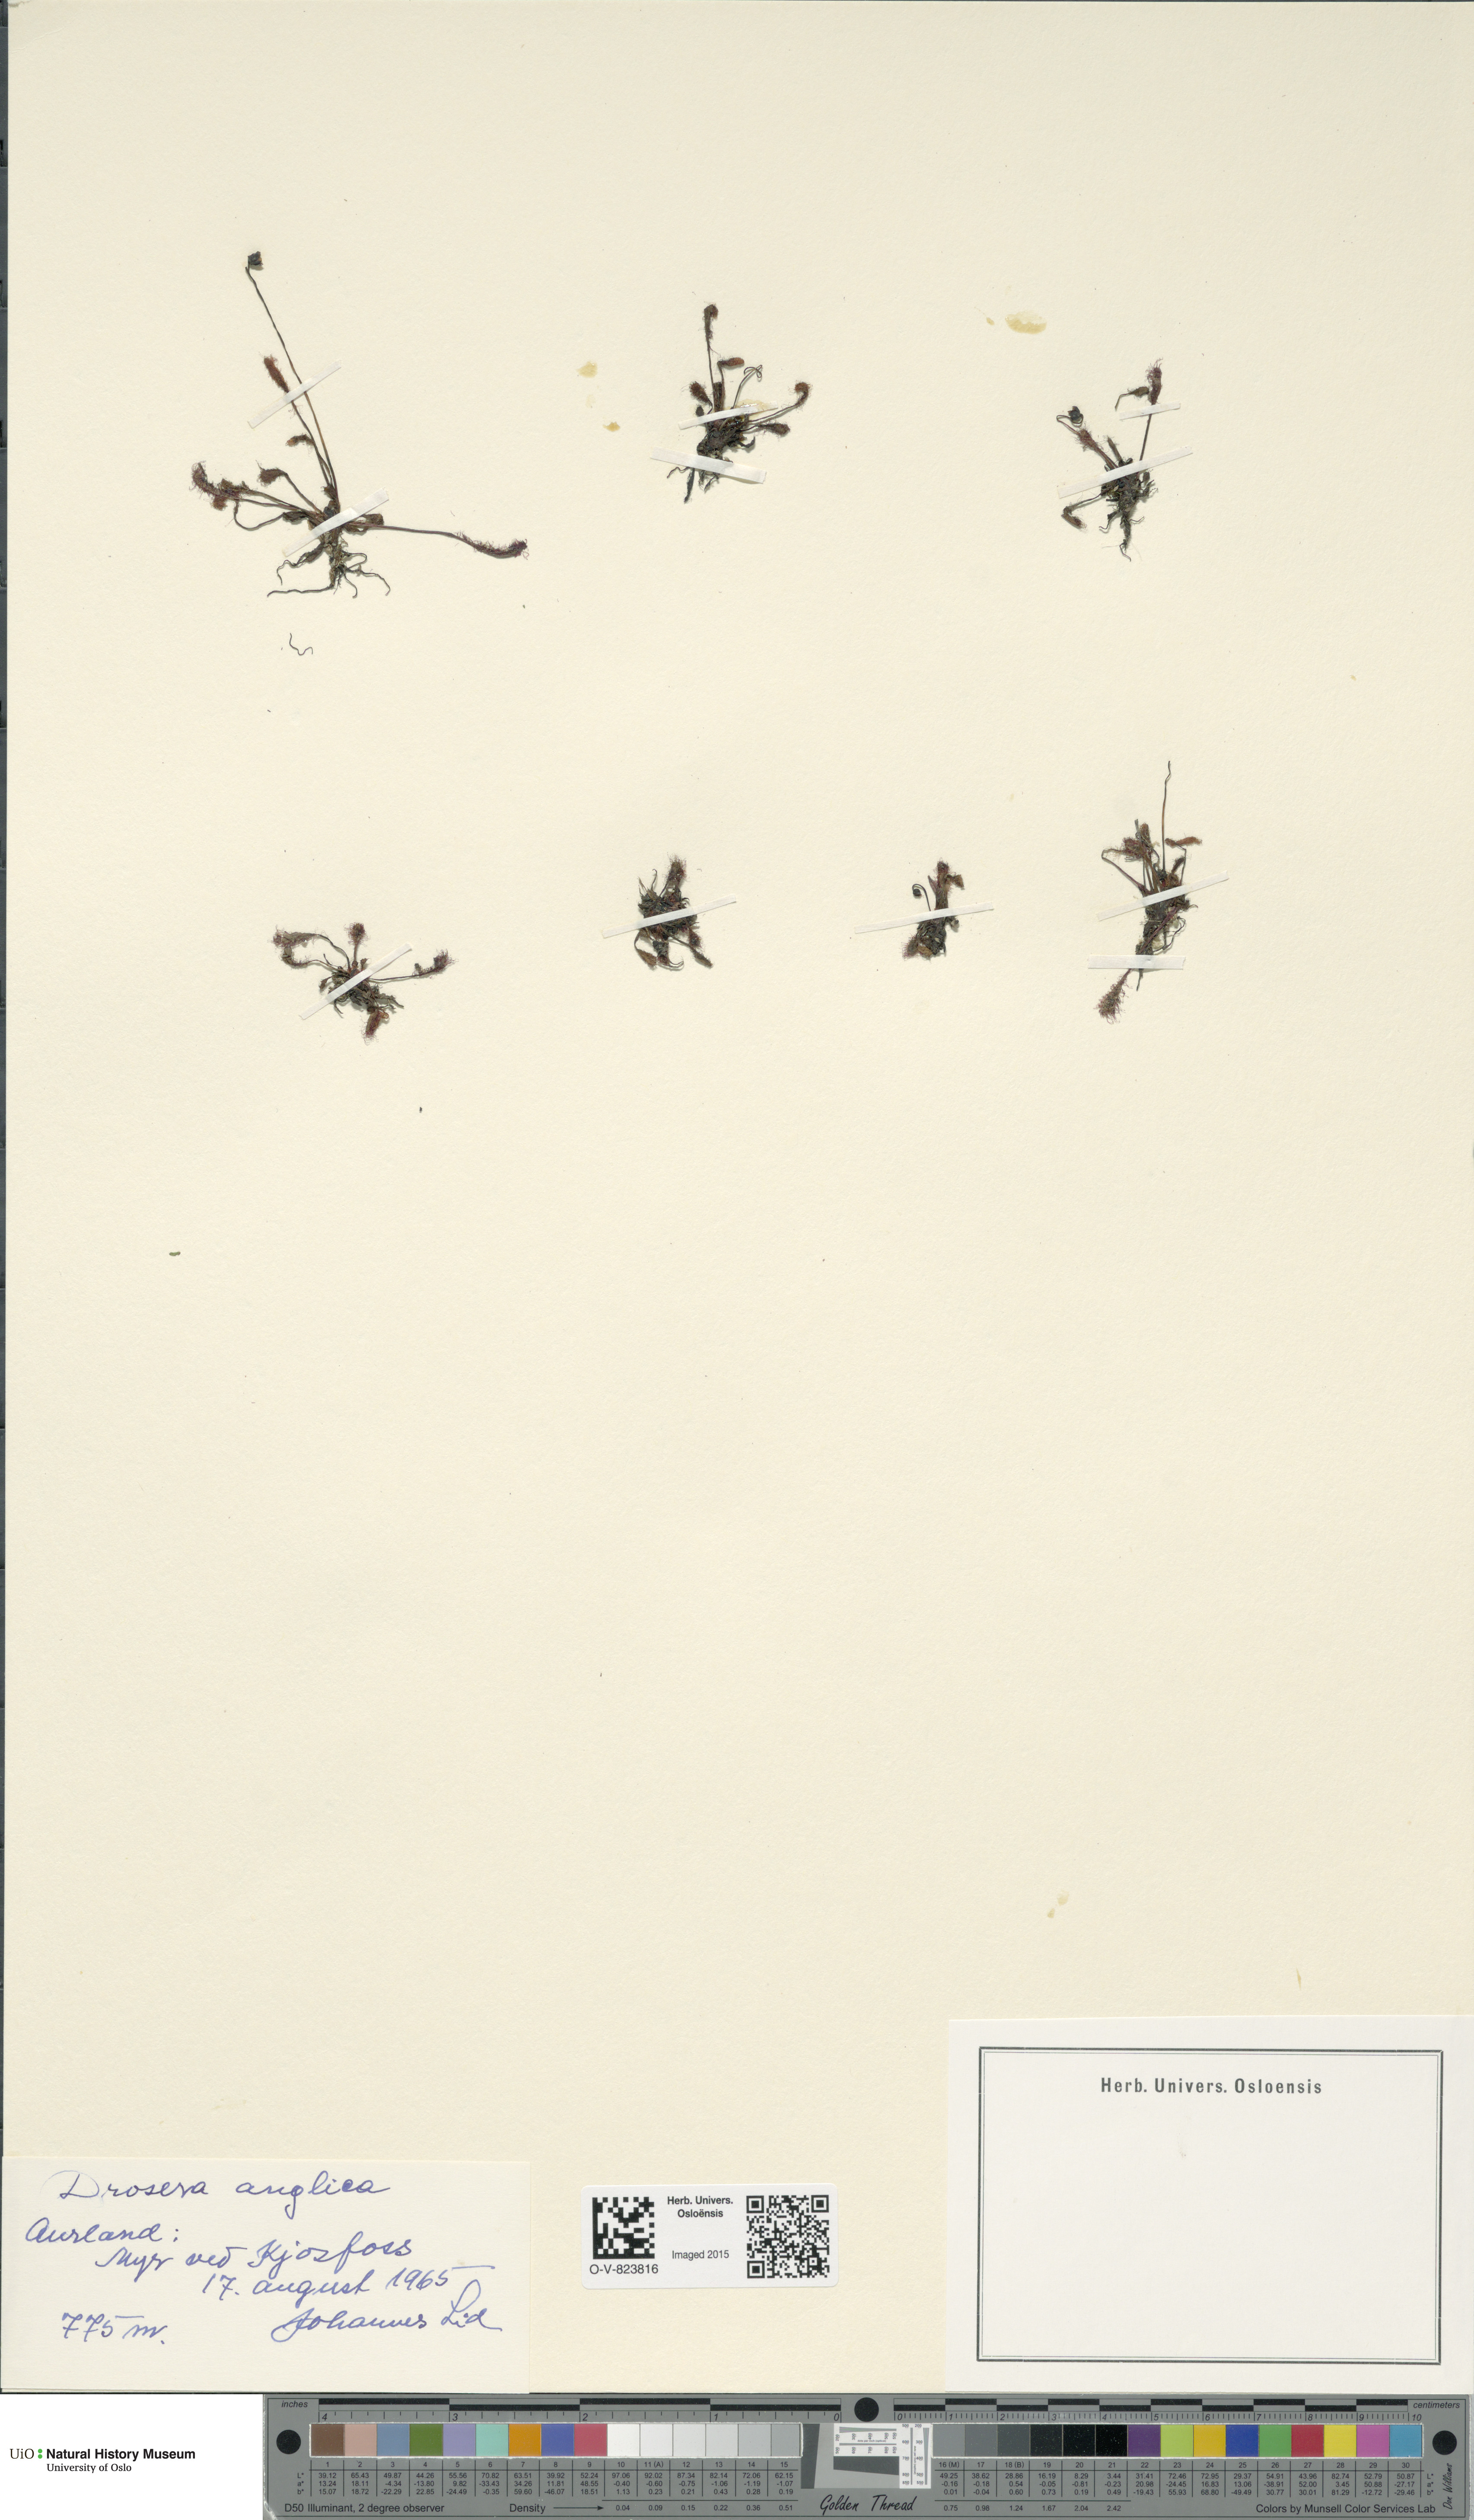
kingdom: Plantae
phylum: Tracheophyta
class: Magnoliopsida
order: Caryophyllales
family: Droseraceae
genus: Drosera
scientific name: Drosera anglica
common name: Great sundew
